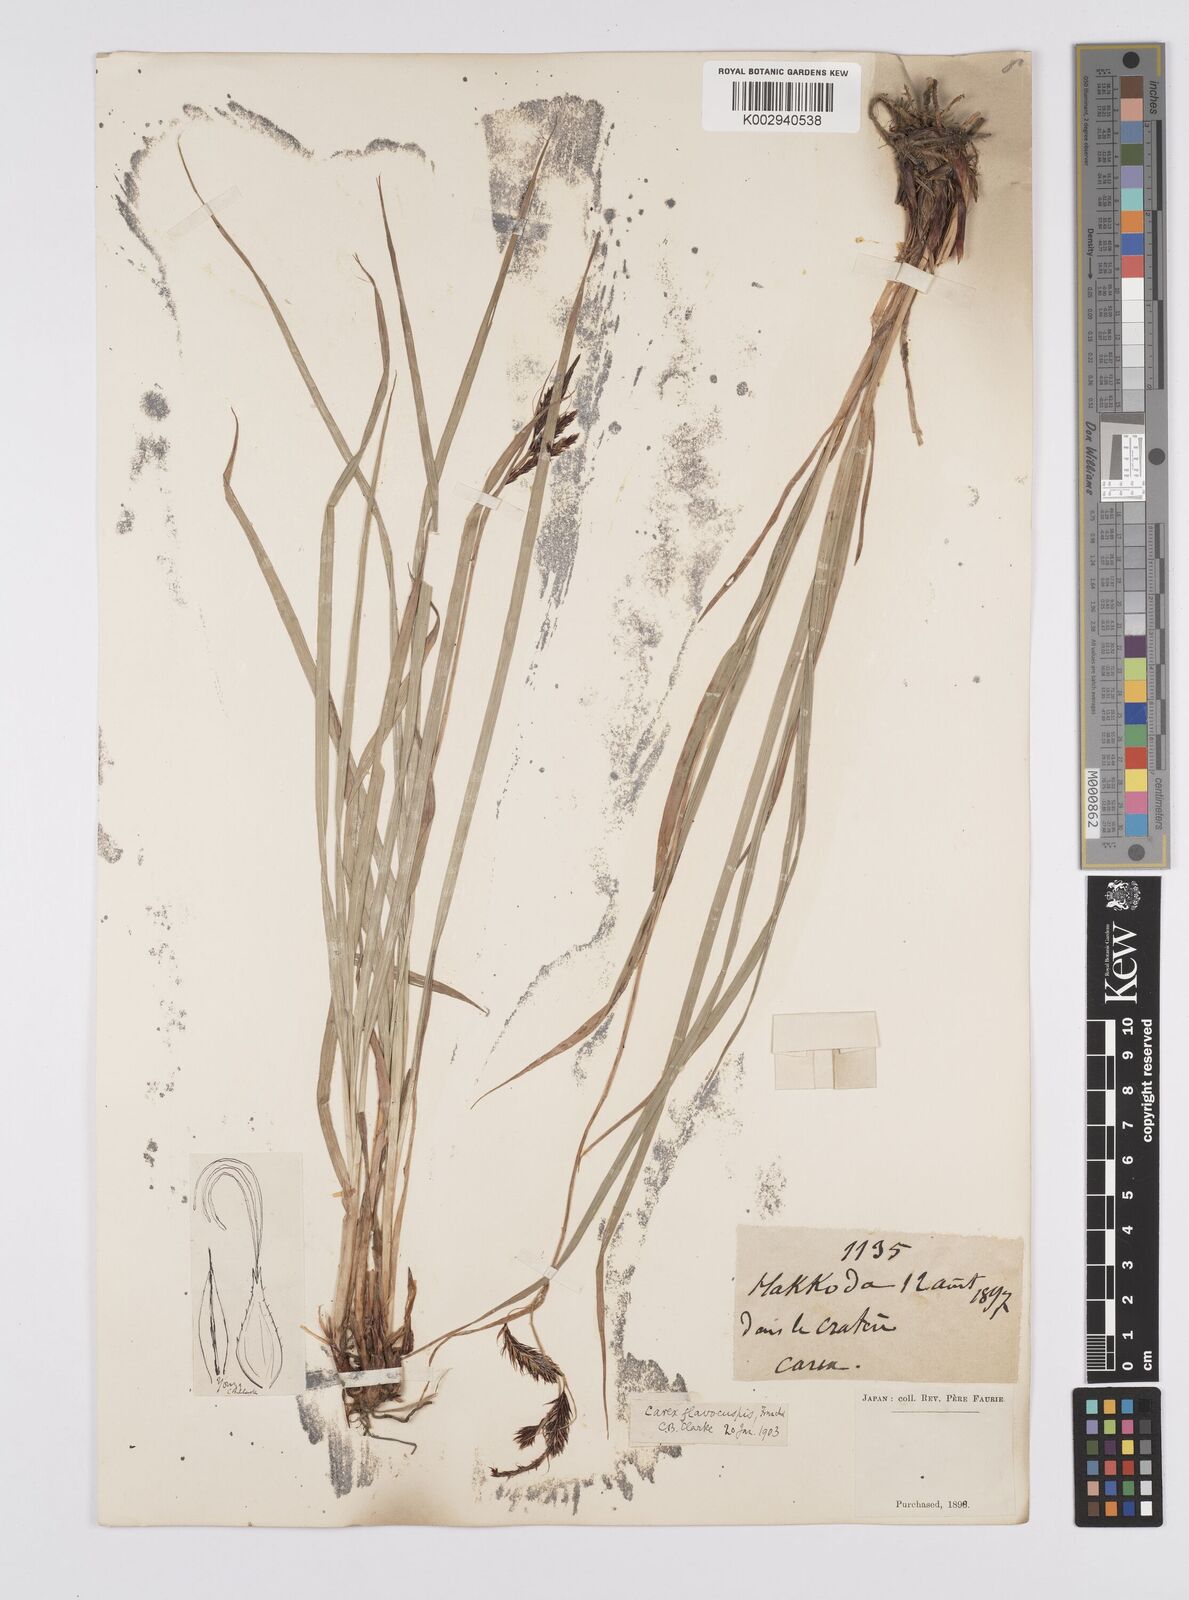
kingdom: Plantae
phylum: Tracheophyta
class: Liliopsida
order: Poales
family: Cyperaceae
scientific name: Cyperaceae
